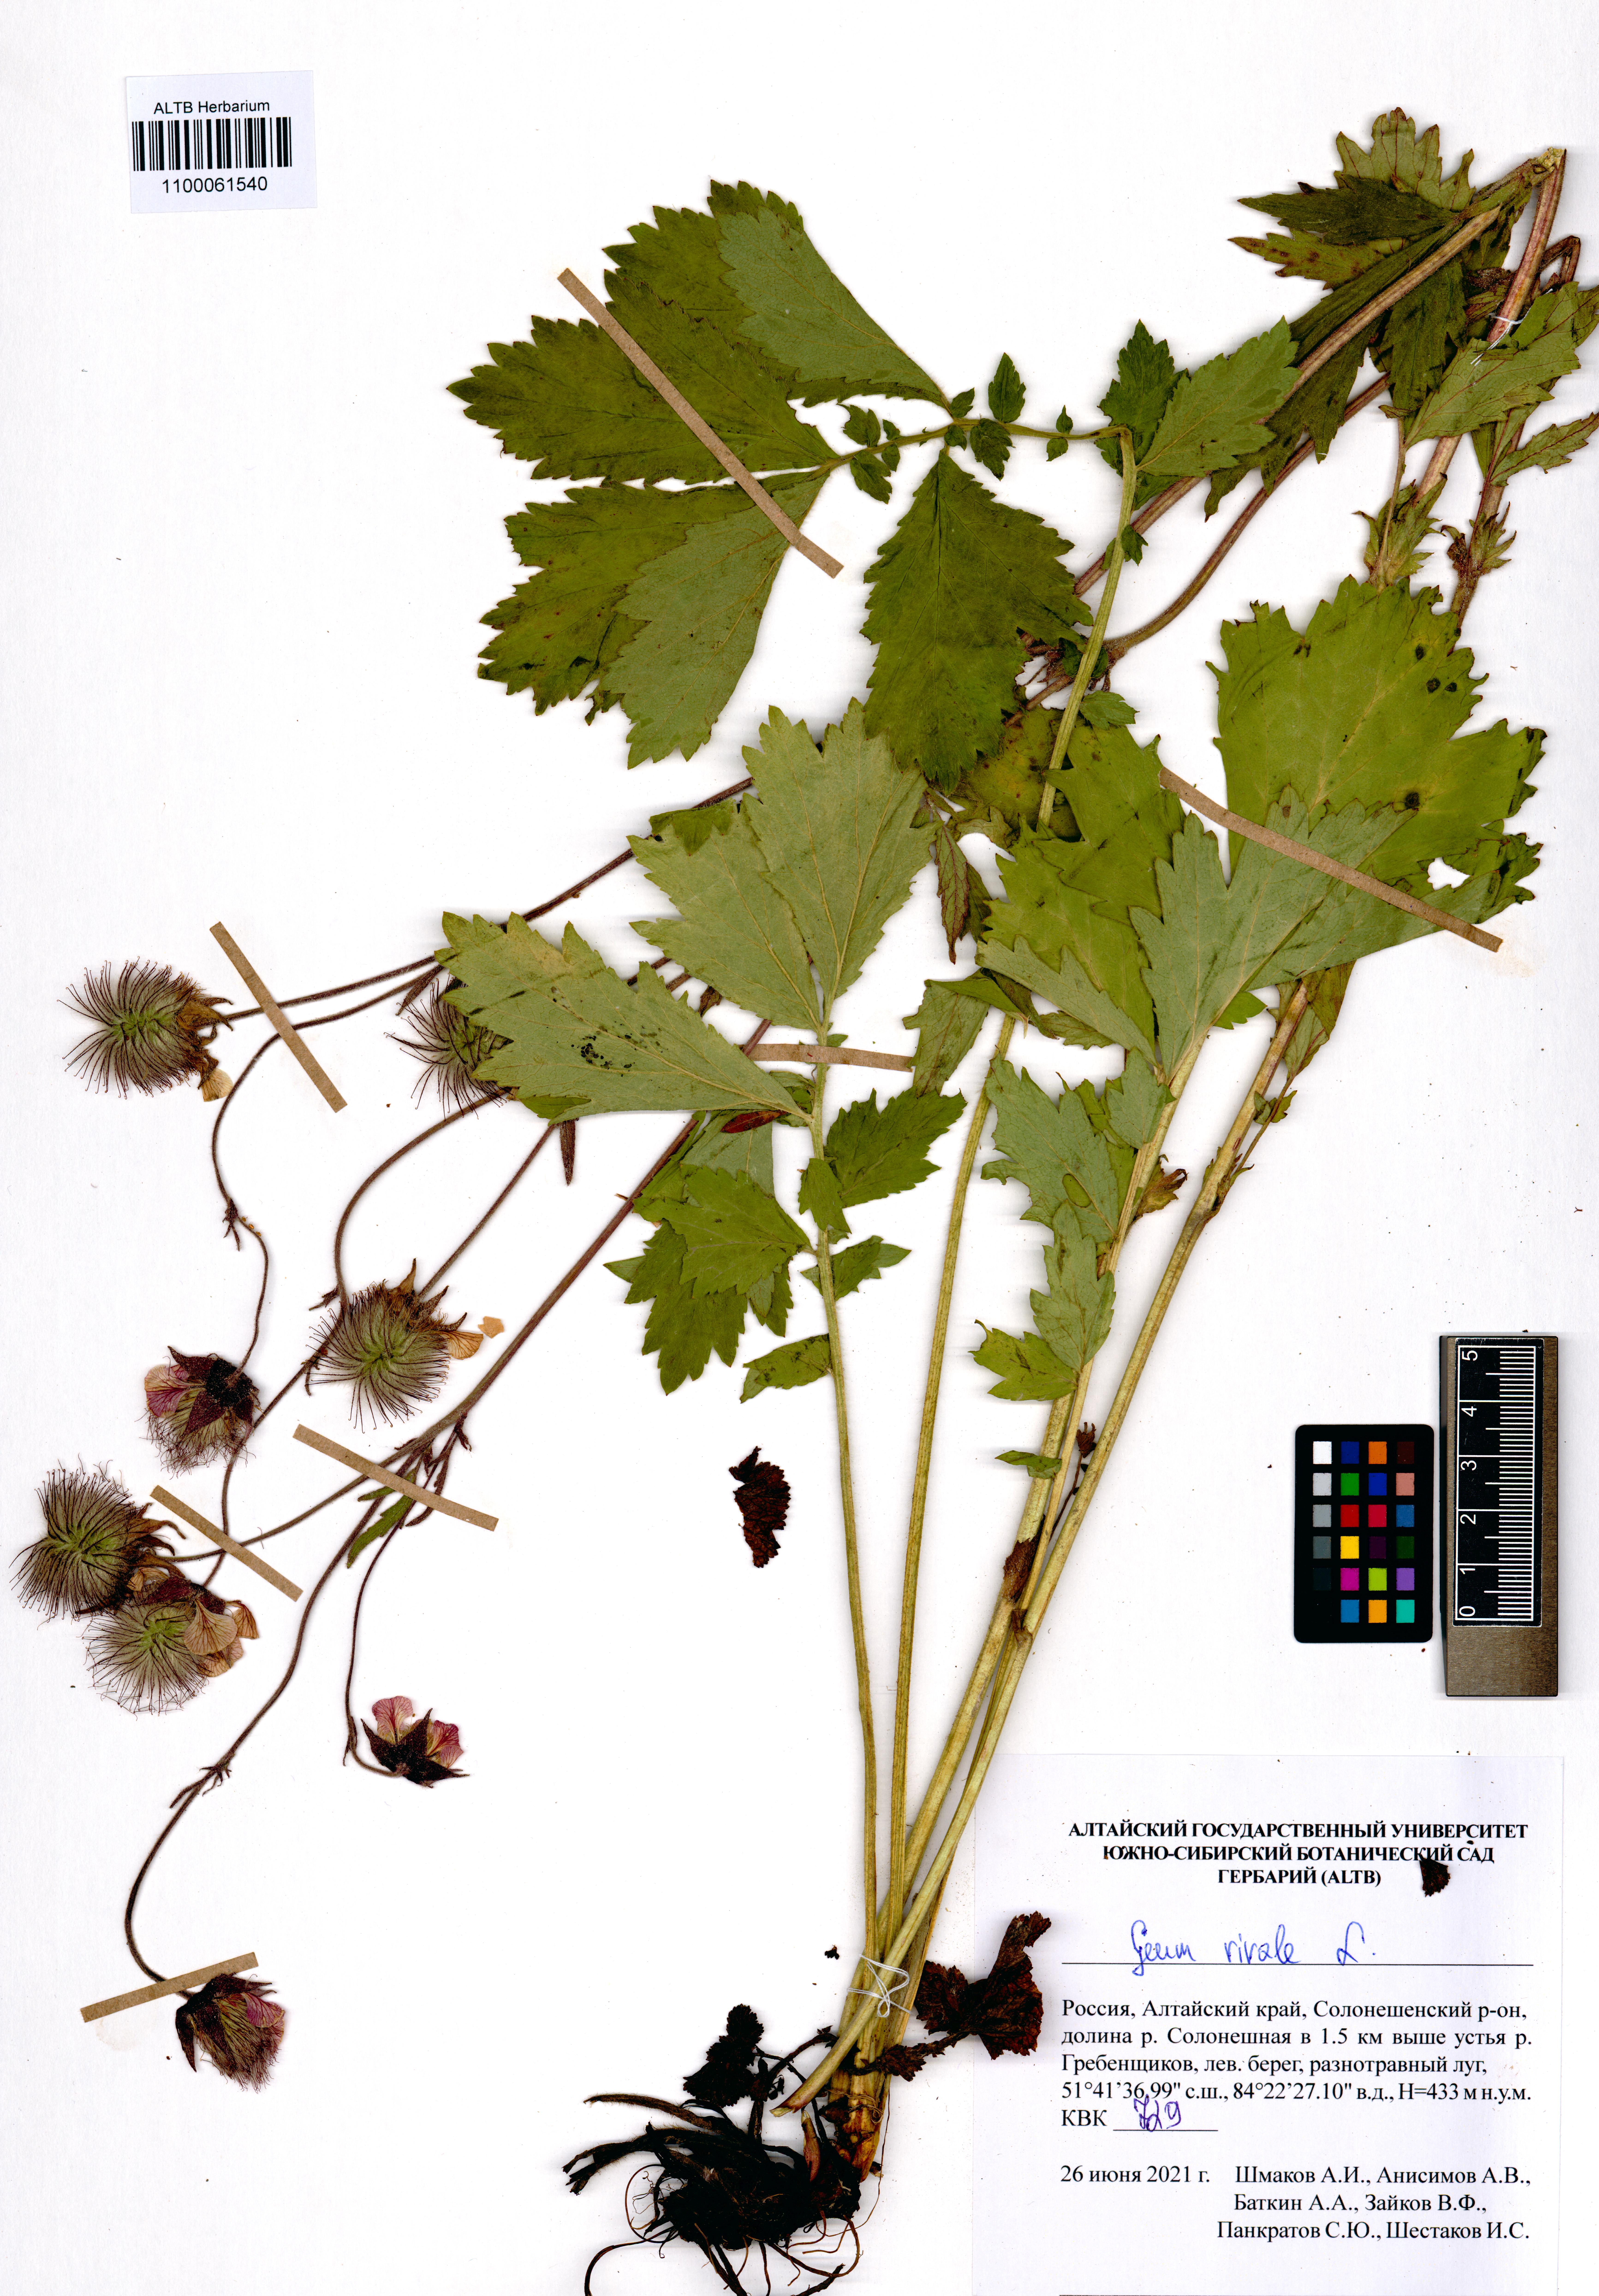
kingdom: Plantae
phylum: Tracheophyta
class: Magnoliopsida
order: Rosales
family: Rosaceae
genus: Geum
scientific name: Geum rivale
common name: Water avens
